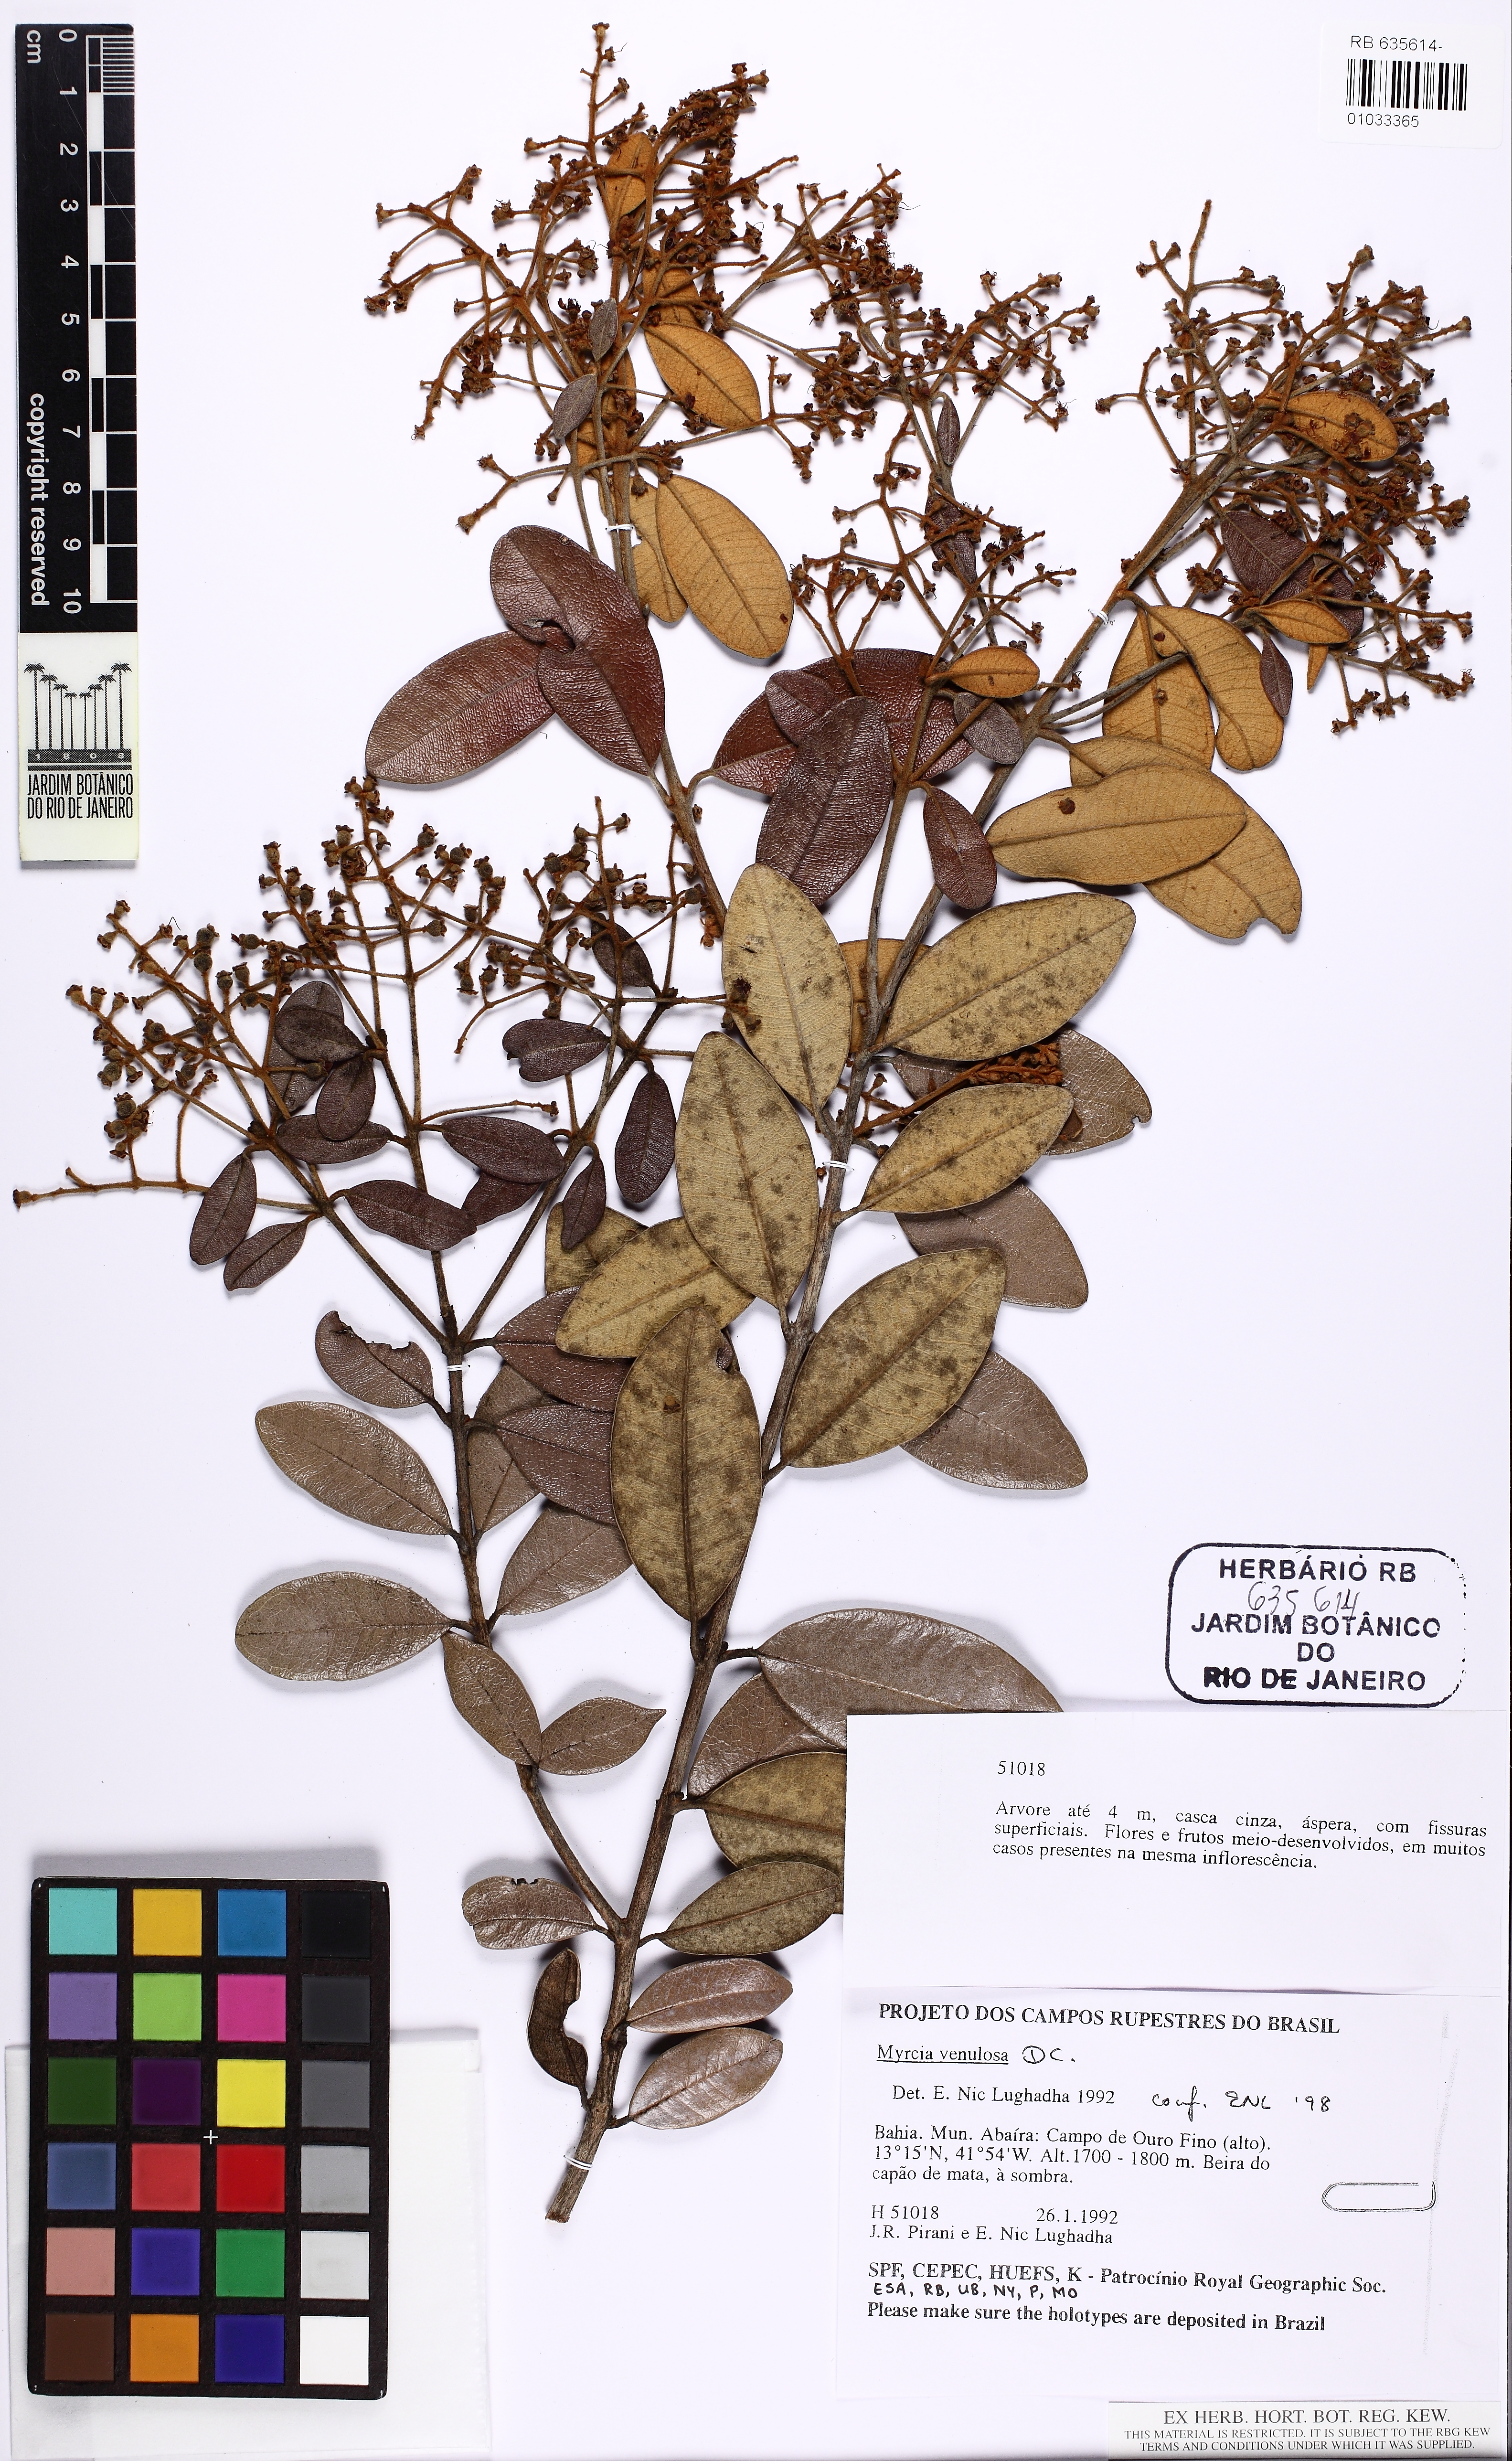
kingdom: Plantae
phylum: Tracheophyta
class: Magnoliopsida
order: Myrtales
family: Myrtaceae
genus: Myrcia
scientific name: Myrcia venulosa
